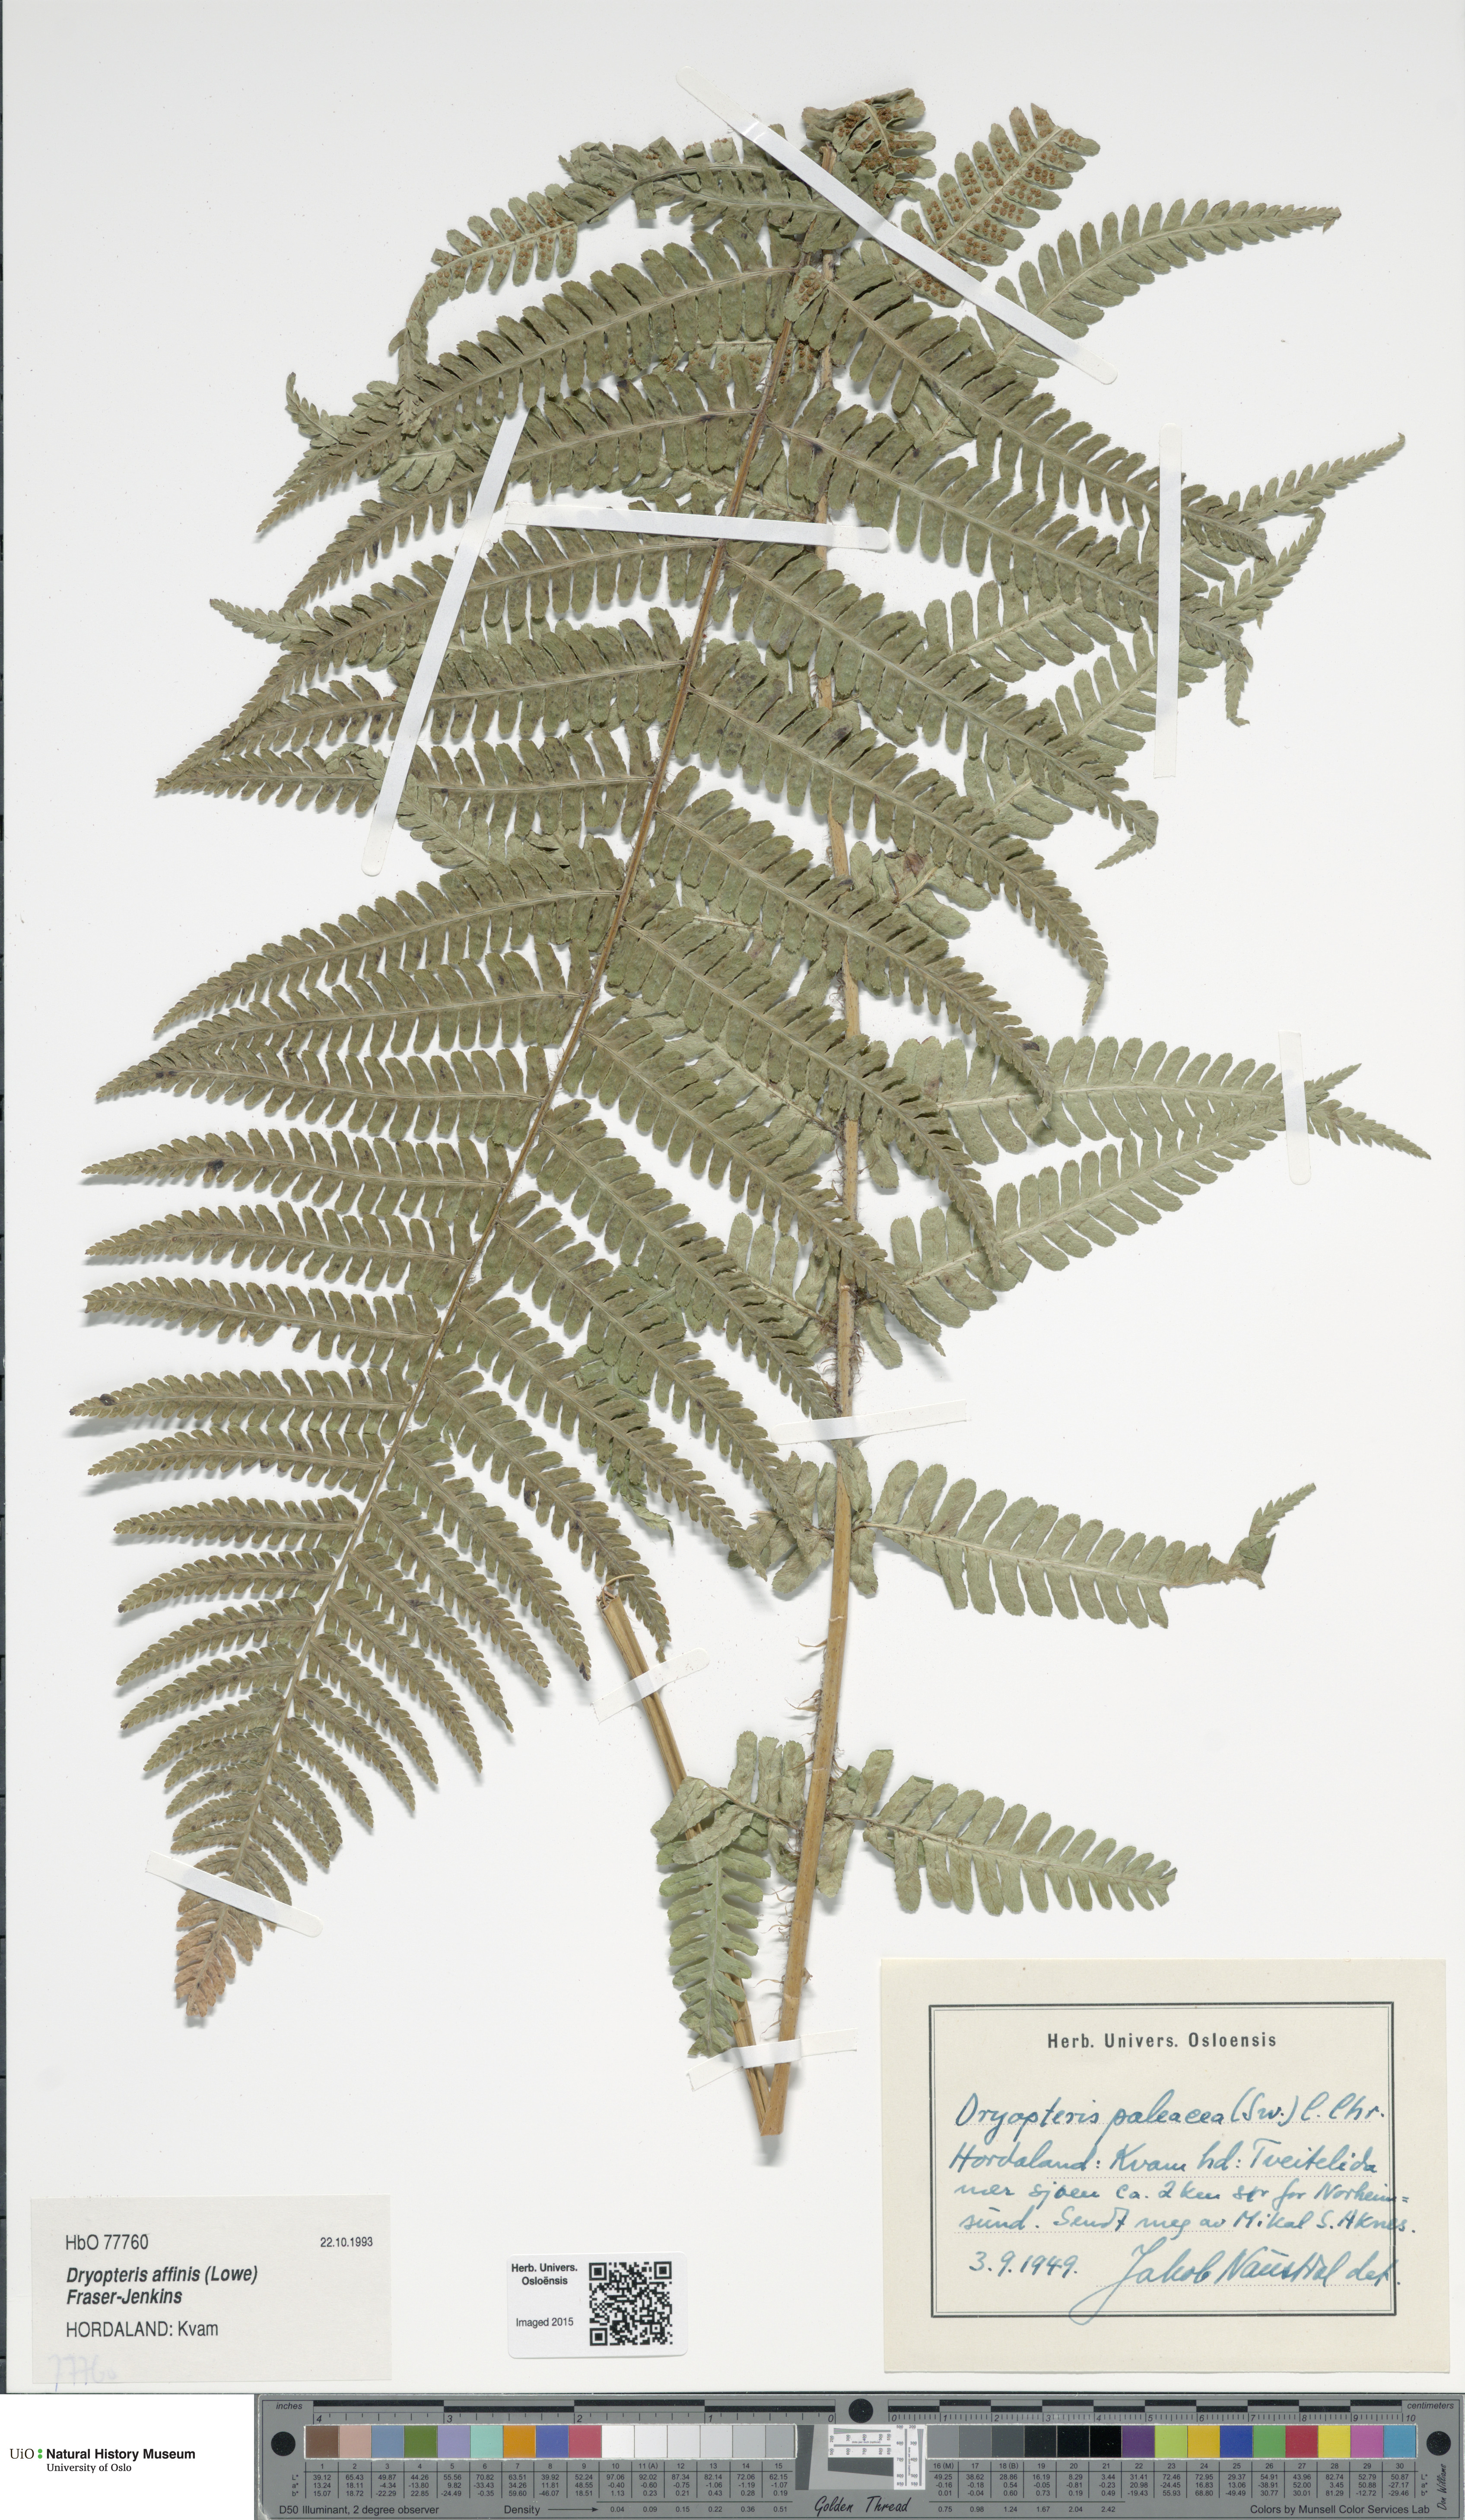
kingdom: Plantae
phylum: Tracheophyta
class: Polypodiopsida
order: Polypodiales
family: Dryopteridaceae
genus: Dryopteris
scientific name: Dryopteris wallichiana
